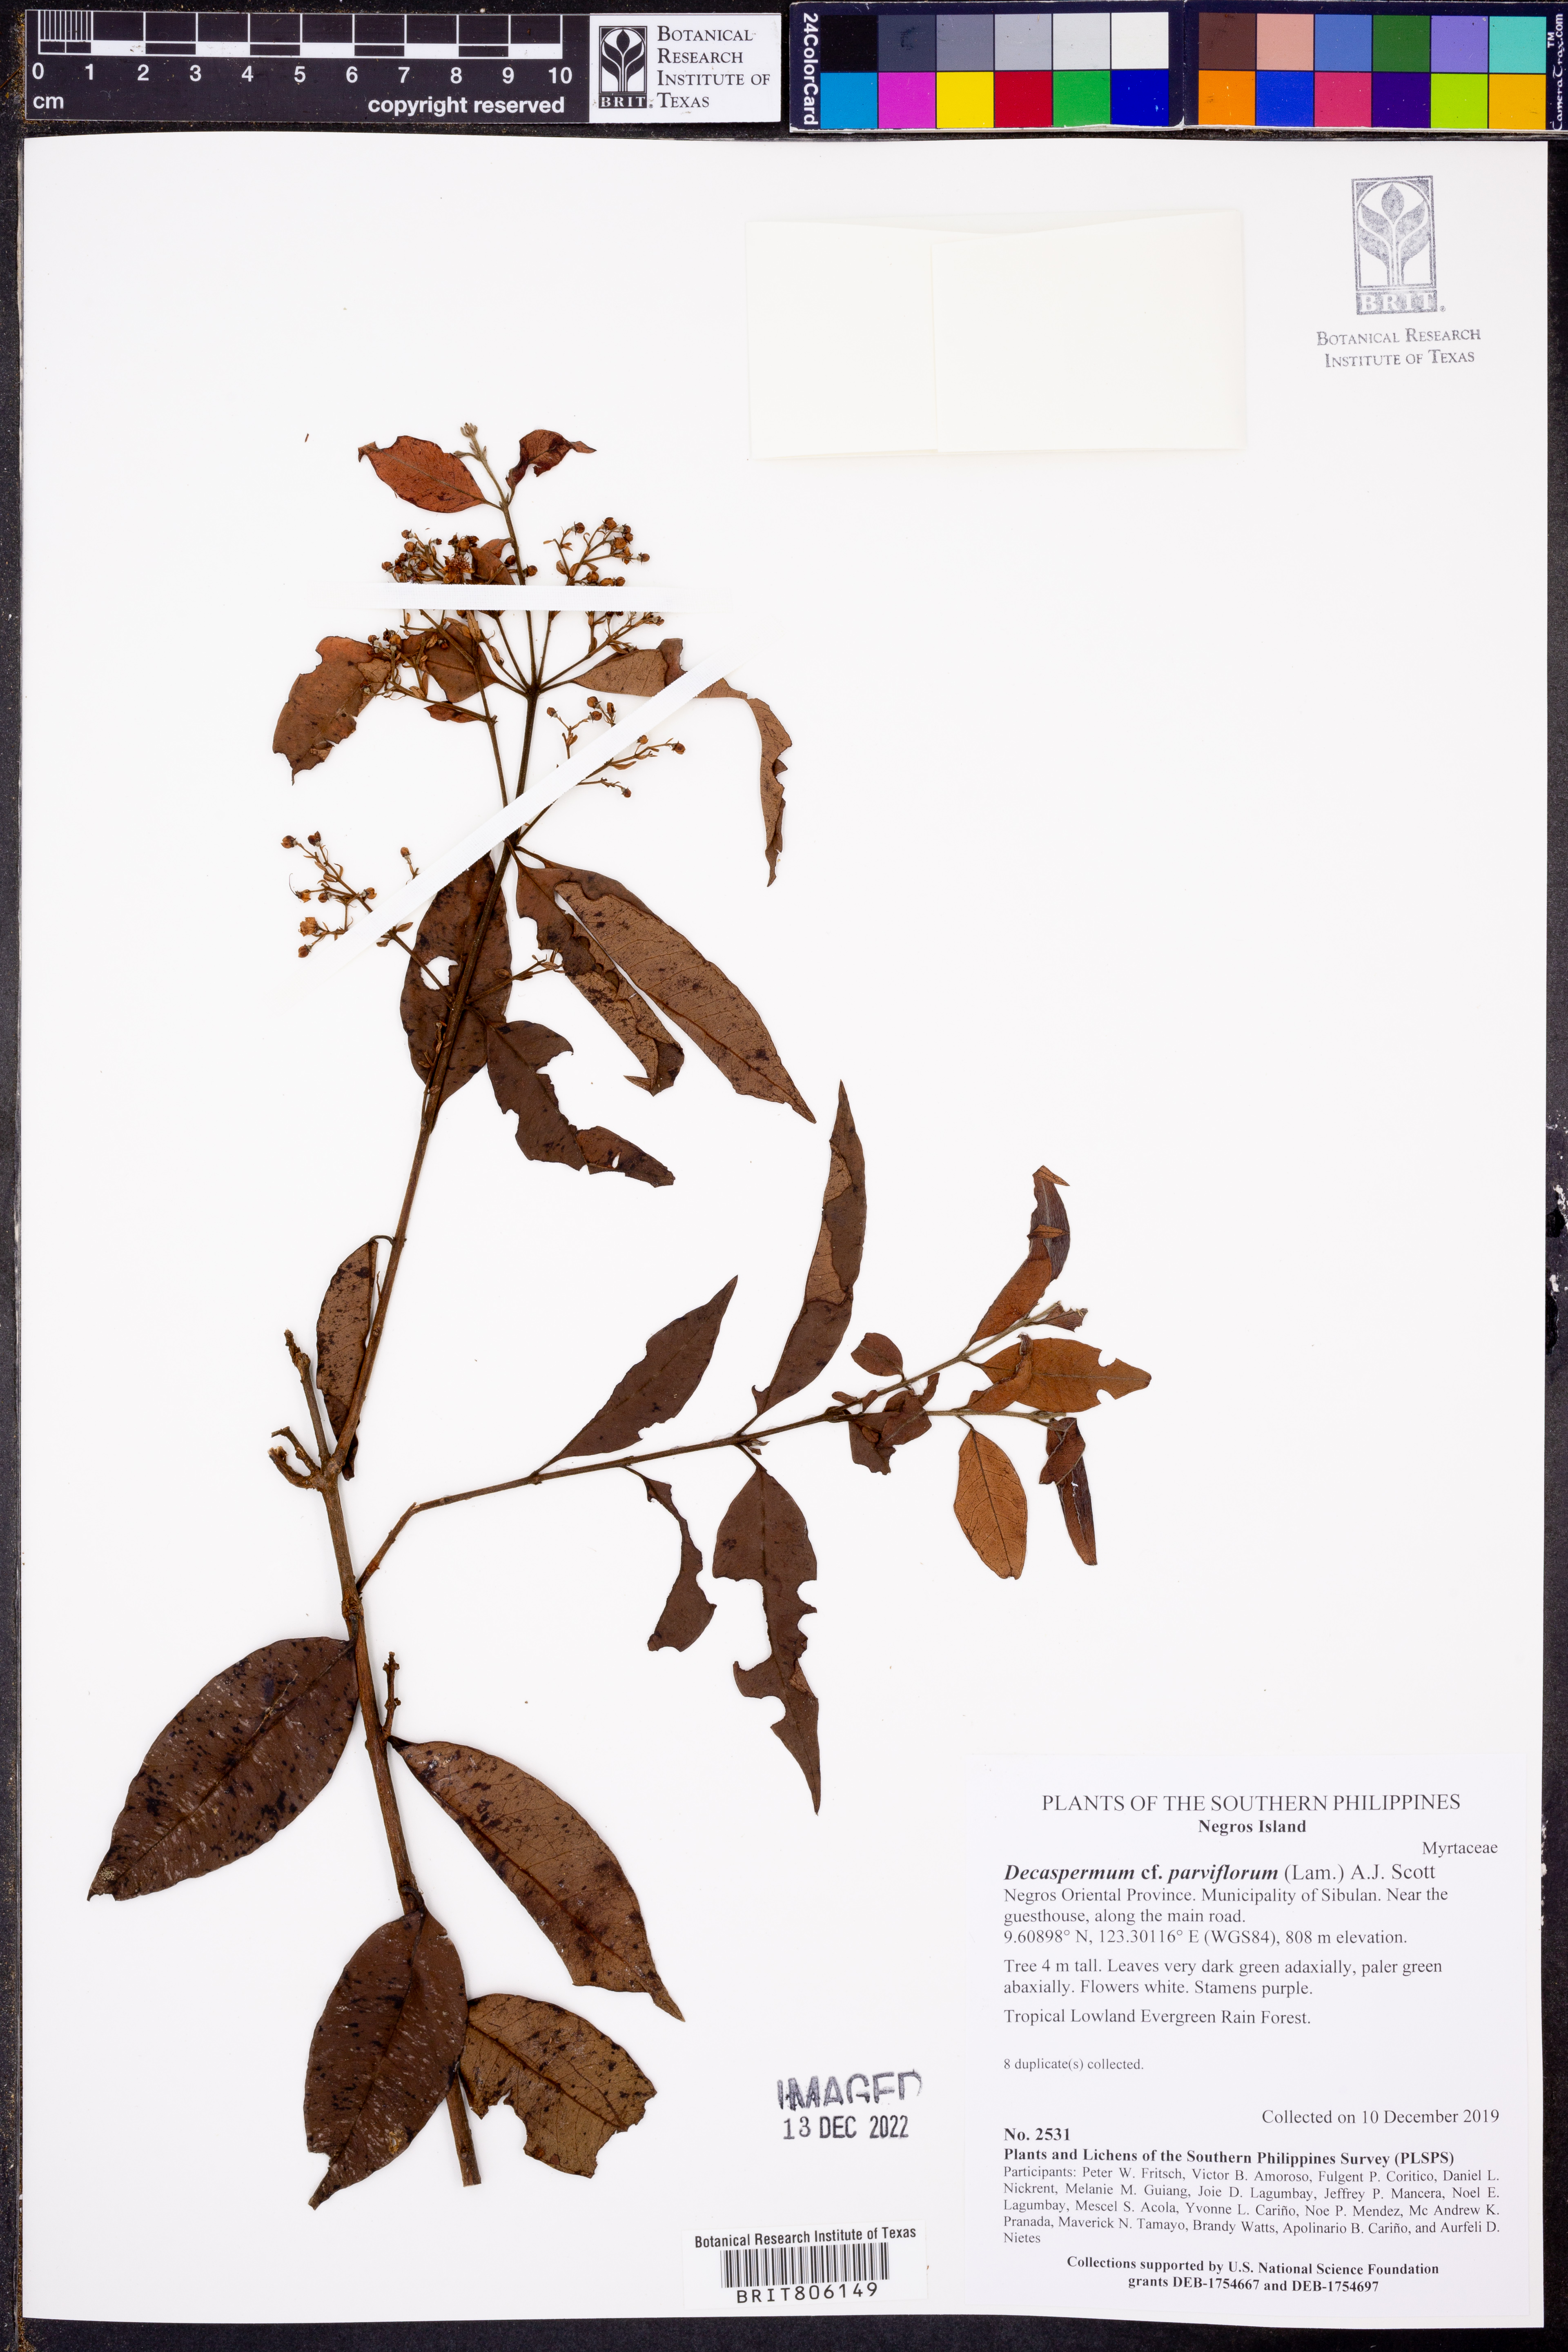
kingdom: Plantae
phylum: Tracheophyta
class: Magnoliopsida
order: Myrtales
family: Myrtaceae
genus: Decaspermum
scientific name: Decaspermum parviflorum
